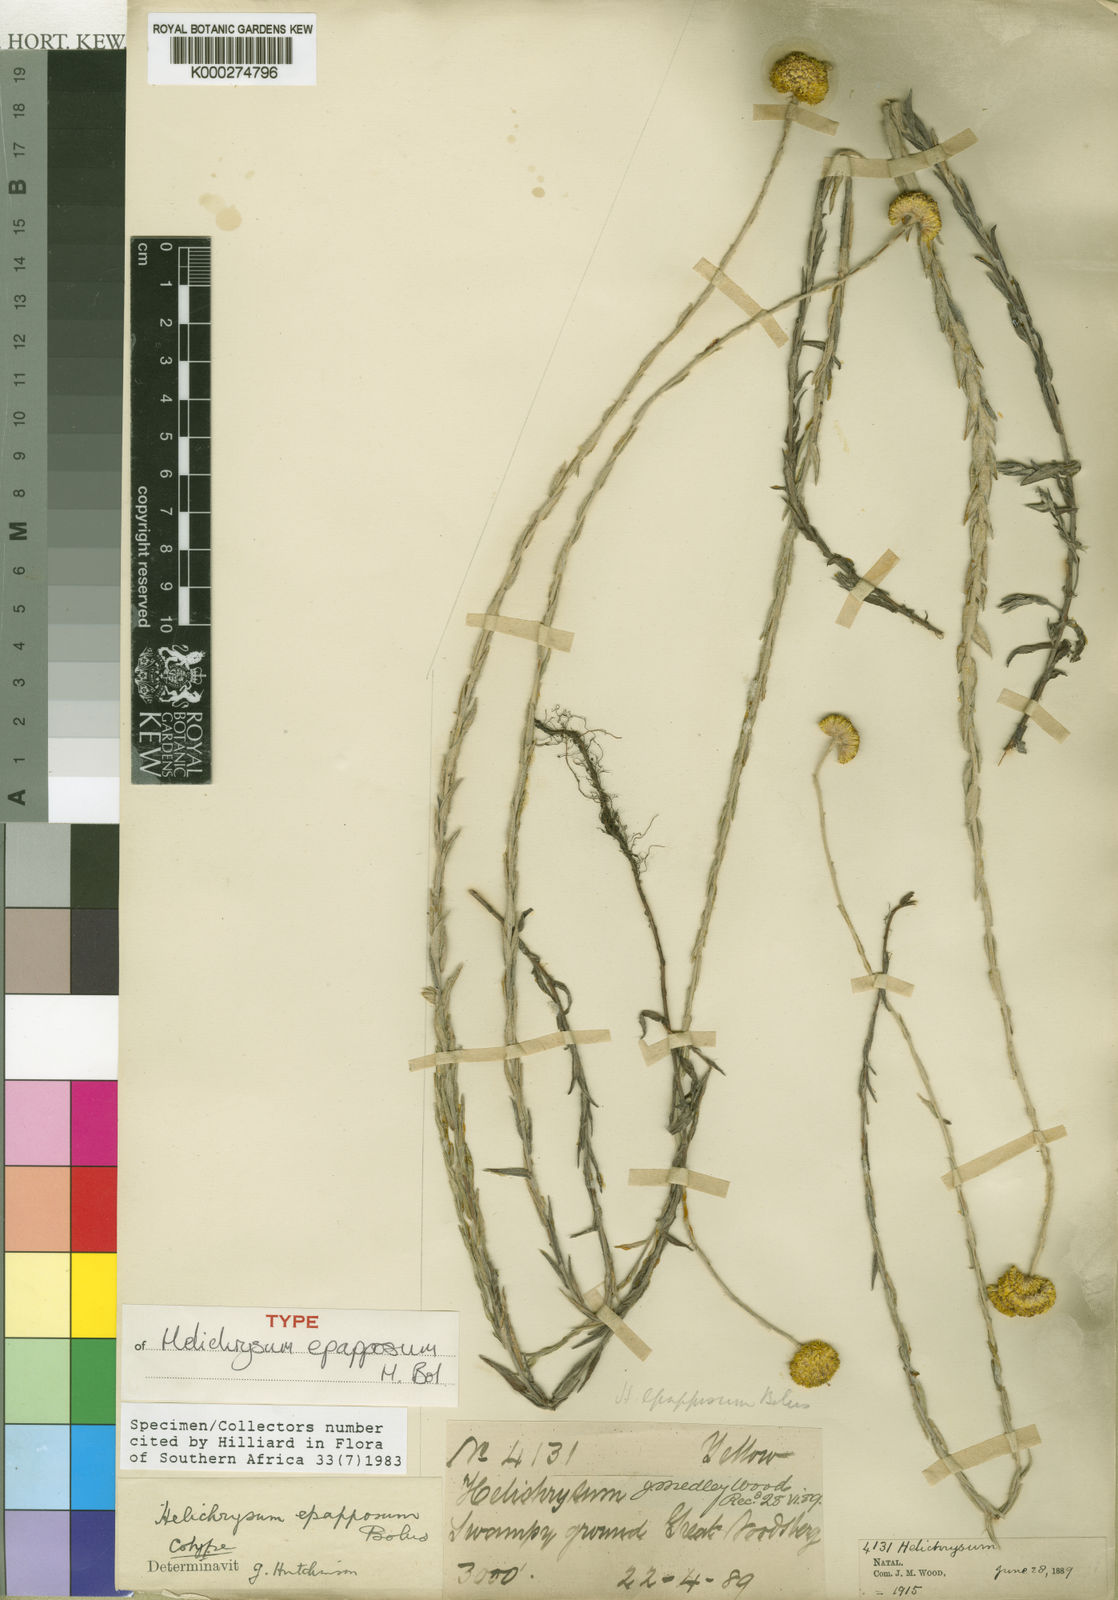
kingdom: Plantae
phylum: Tracheophyta
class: Magnoliopsida
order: Asterales
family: Asteraceae
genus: Helichrysum
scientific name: Helichrysum
